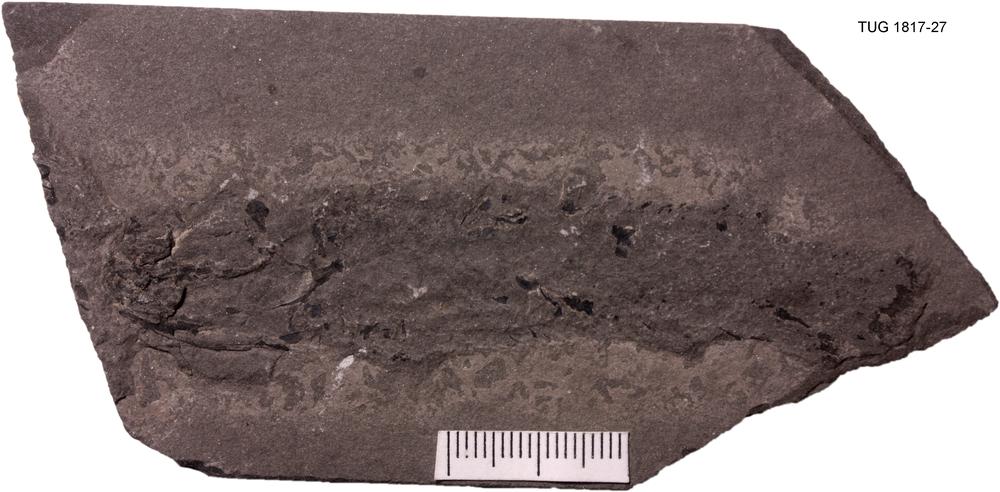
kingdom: Animalia
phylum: Chordata
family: Osteolepididae
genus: Osteolepis
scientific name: Osteolepis macrolepidotus
